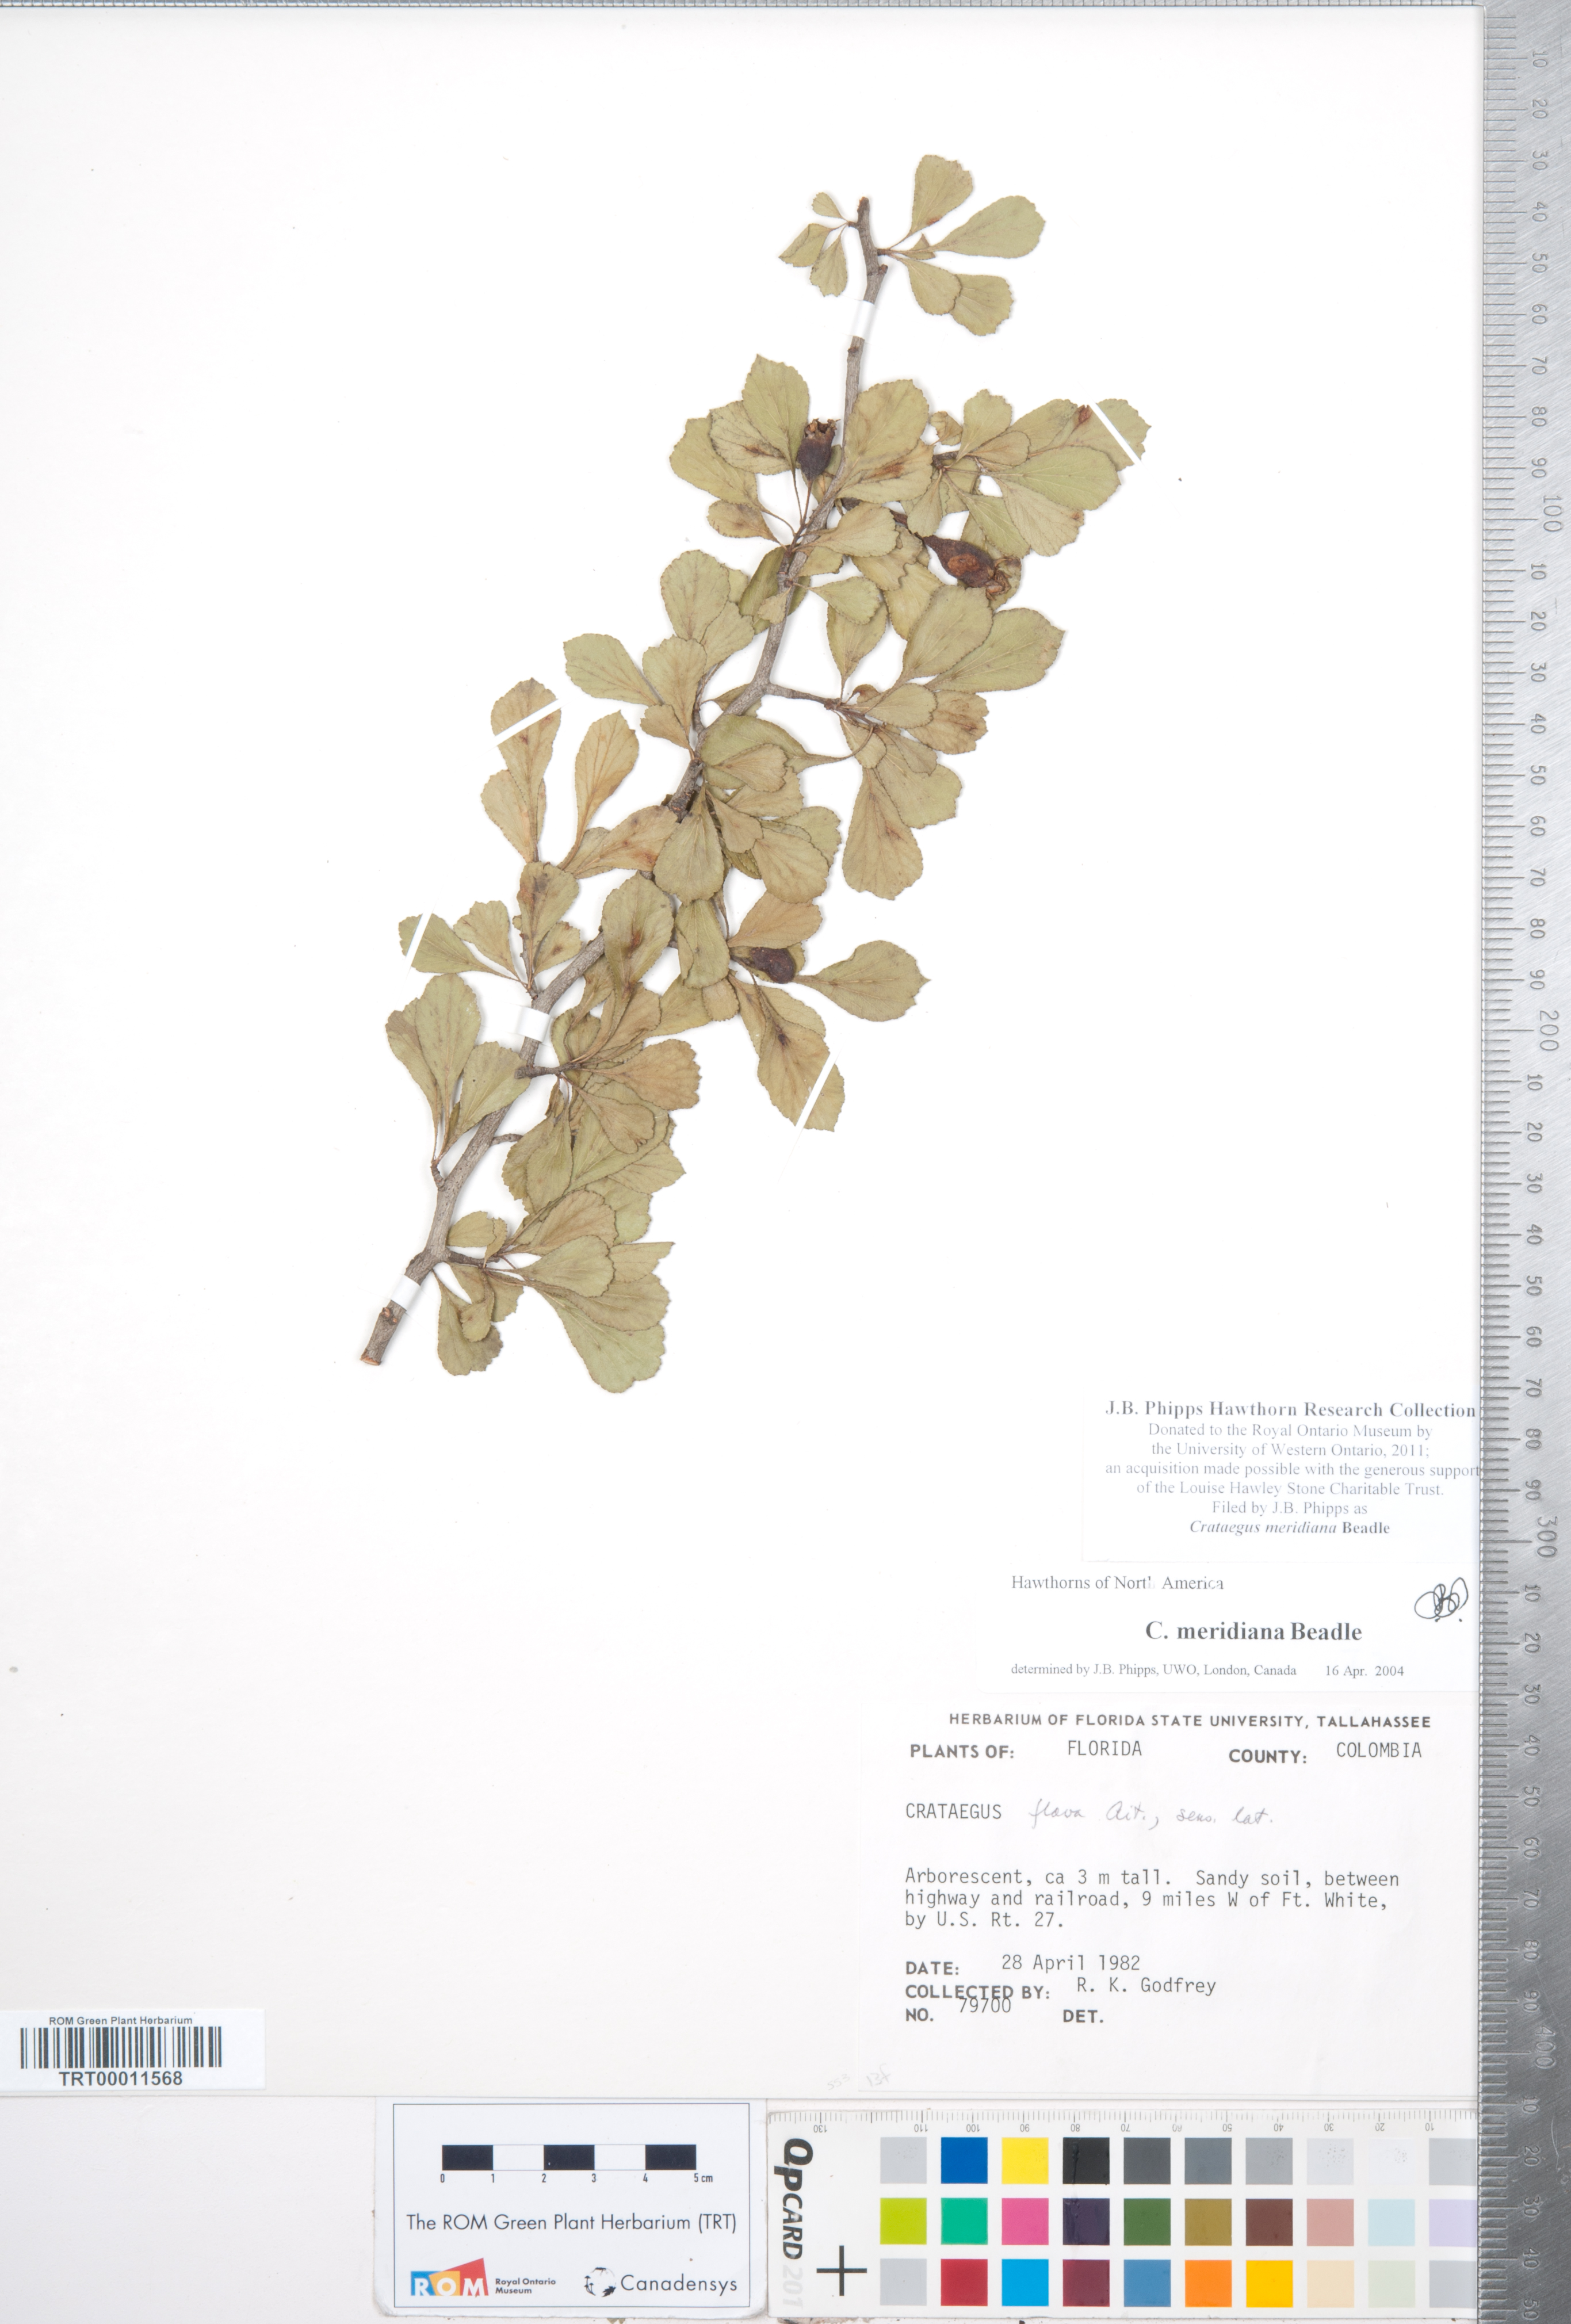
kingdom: Plantae
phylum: Tracheophyta
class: Magnoliopsida
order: Rosales
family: Rosaceae
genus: Crataegus
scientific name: Crataegus lassa
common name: Florida hawthorn
